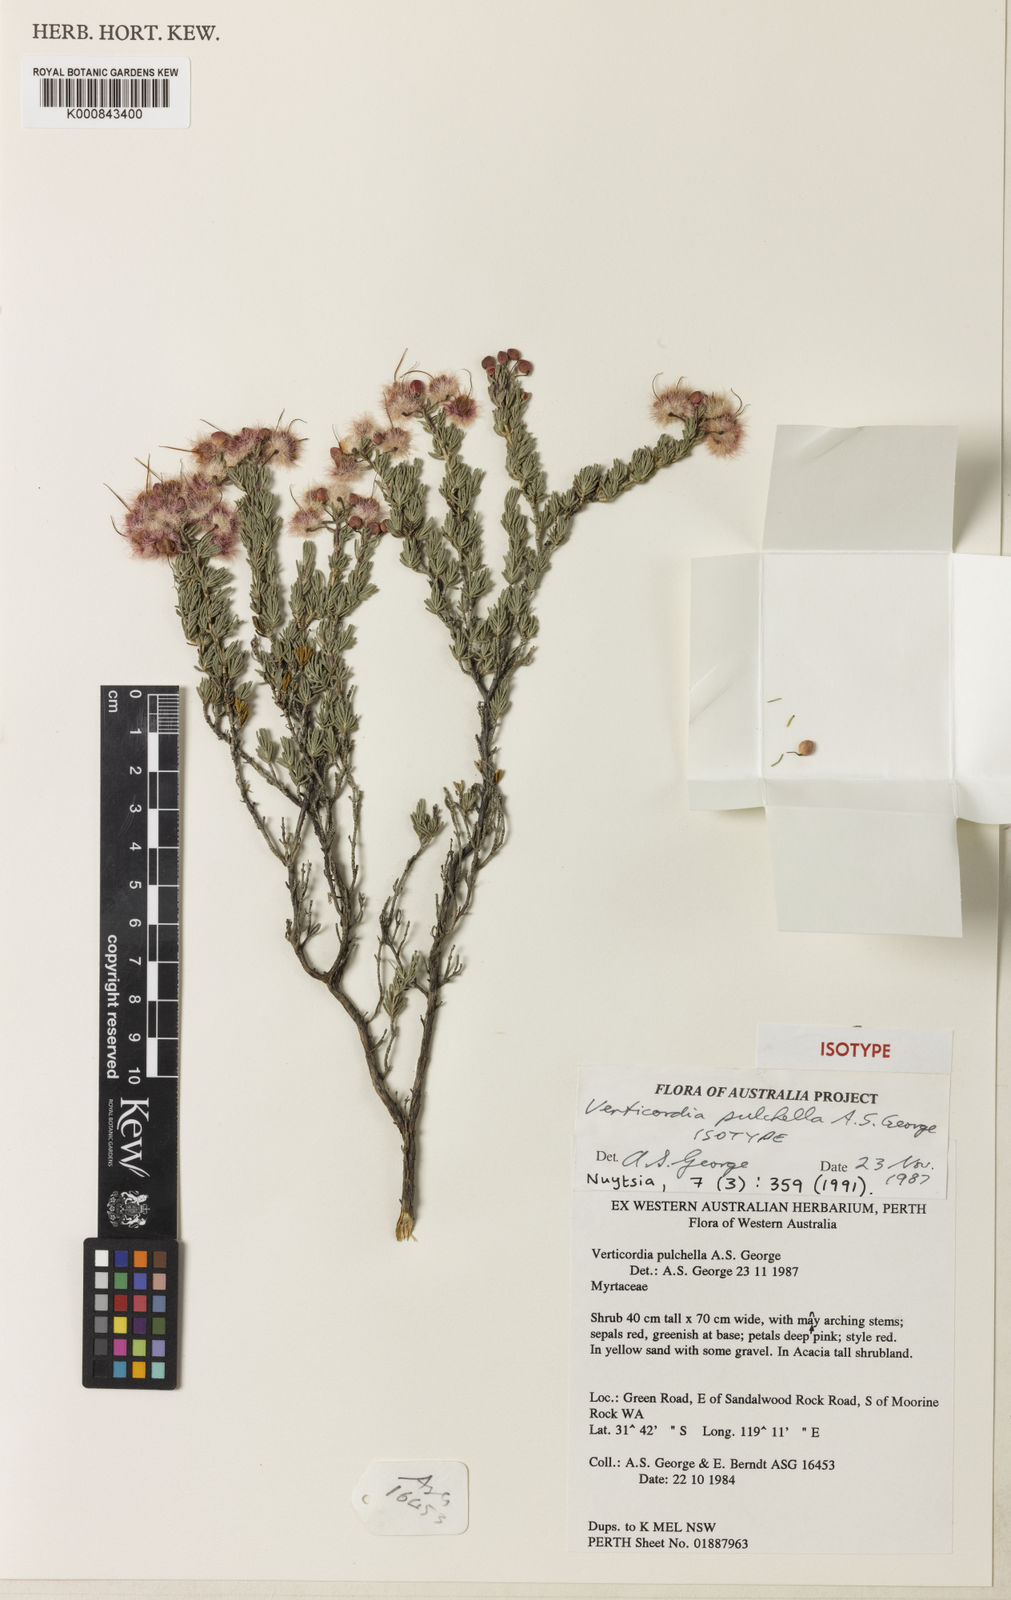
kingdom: Plantae
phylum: Tracheophyta
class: Magnoliopsida
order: Myrtales
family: Myrtaceae
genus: Verticordia
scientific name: Verticordia pulchella
